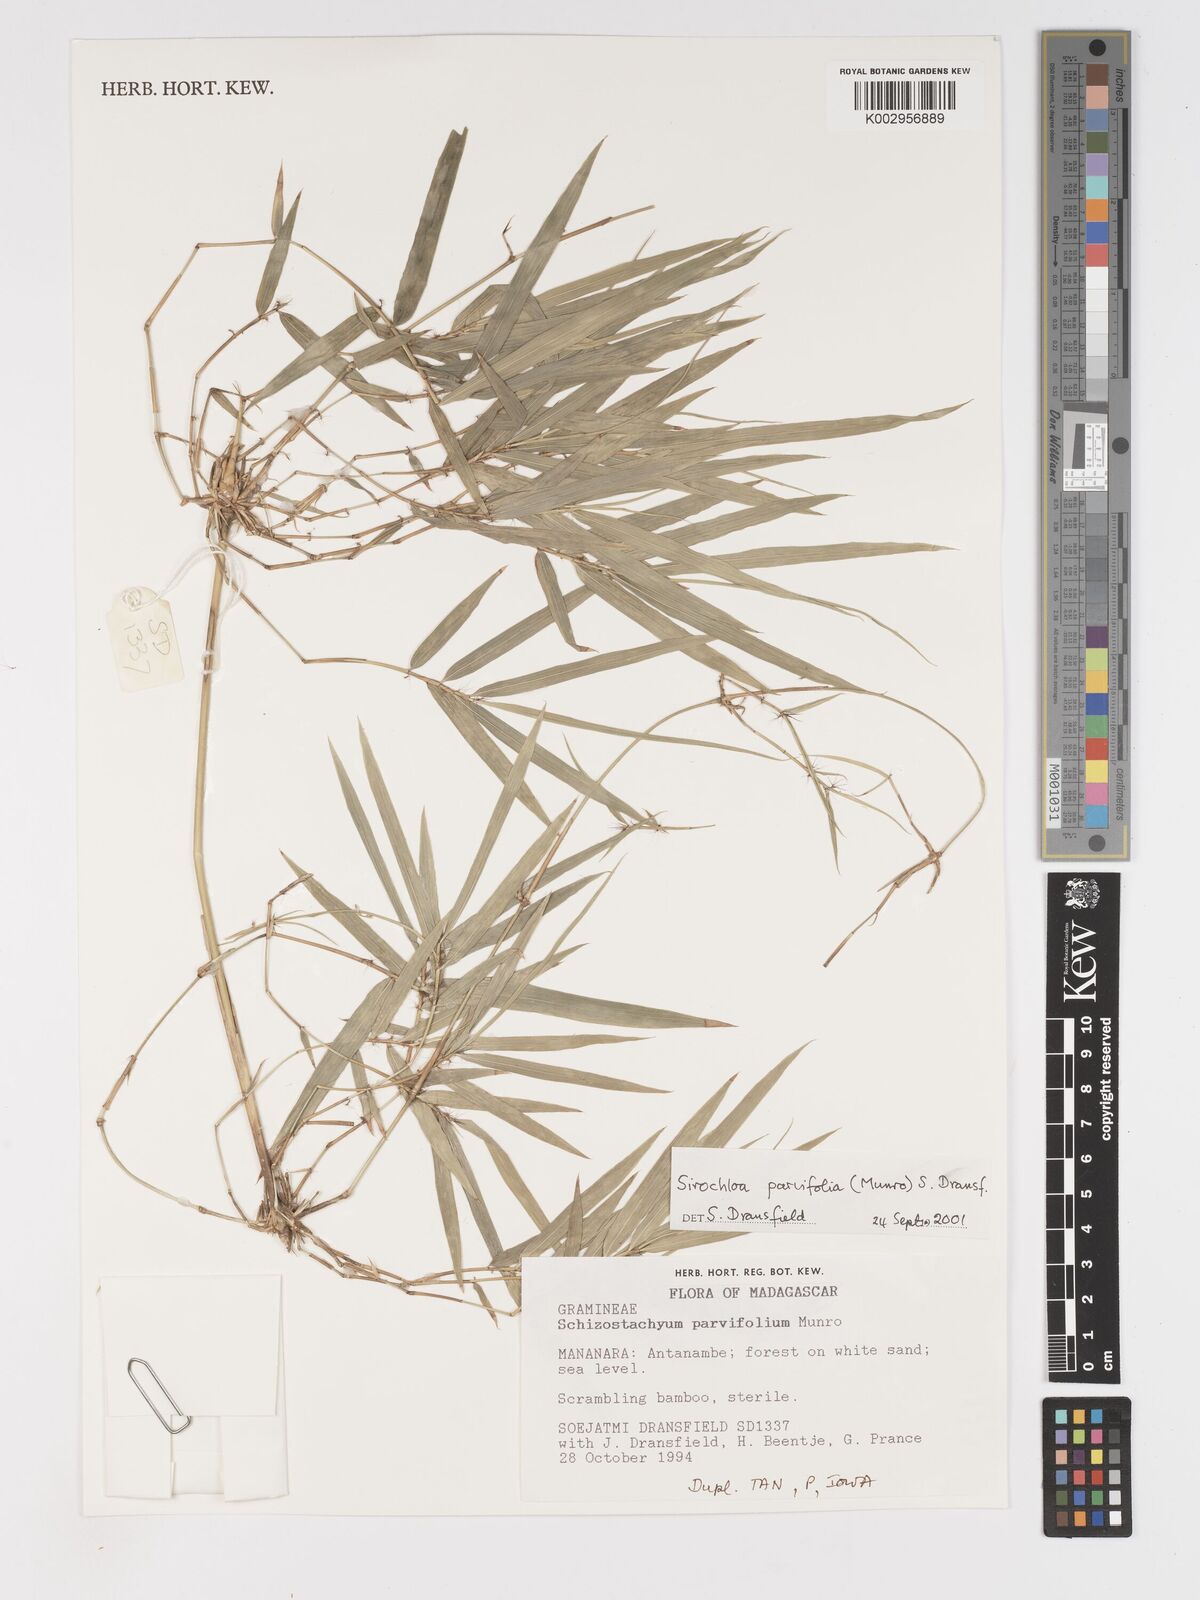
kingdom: Plantae
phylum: Tracheophyta
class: Liliopsida
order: Poales
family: Poaceae
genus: Sirochloa
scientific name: Sirochloa parvifolia
